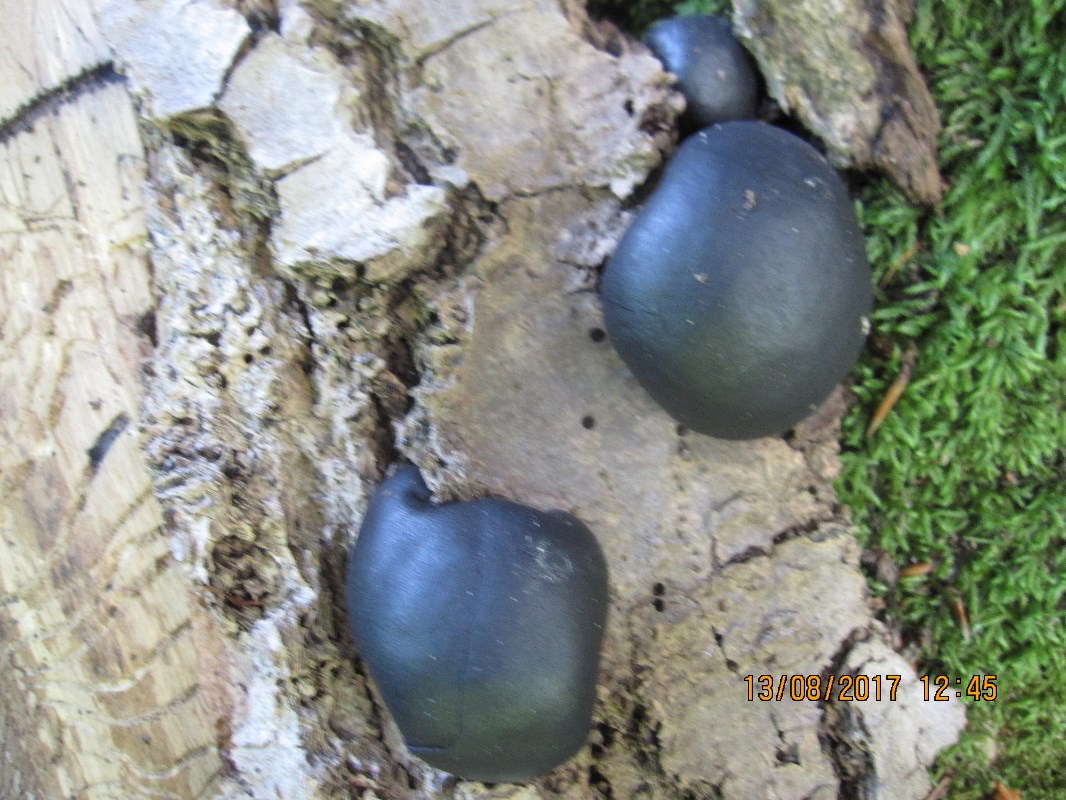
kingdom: Fungi
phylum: Ascomycota
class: Sordariomycetes
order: Xylariales
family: Hypoxylaceae
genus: Daldinia
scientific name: Daldinia concentrica
